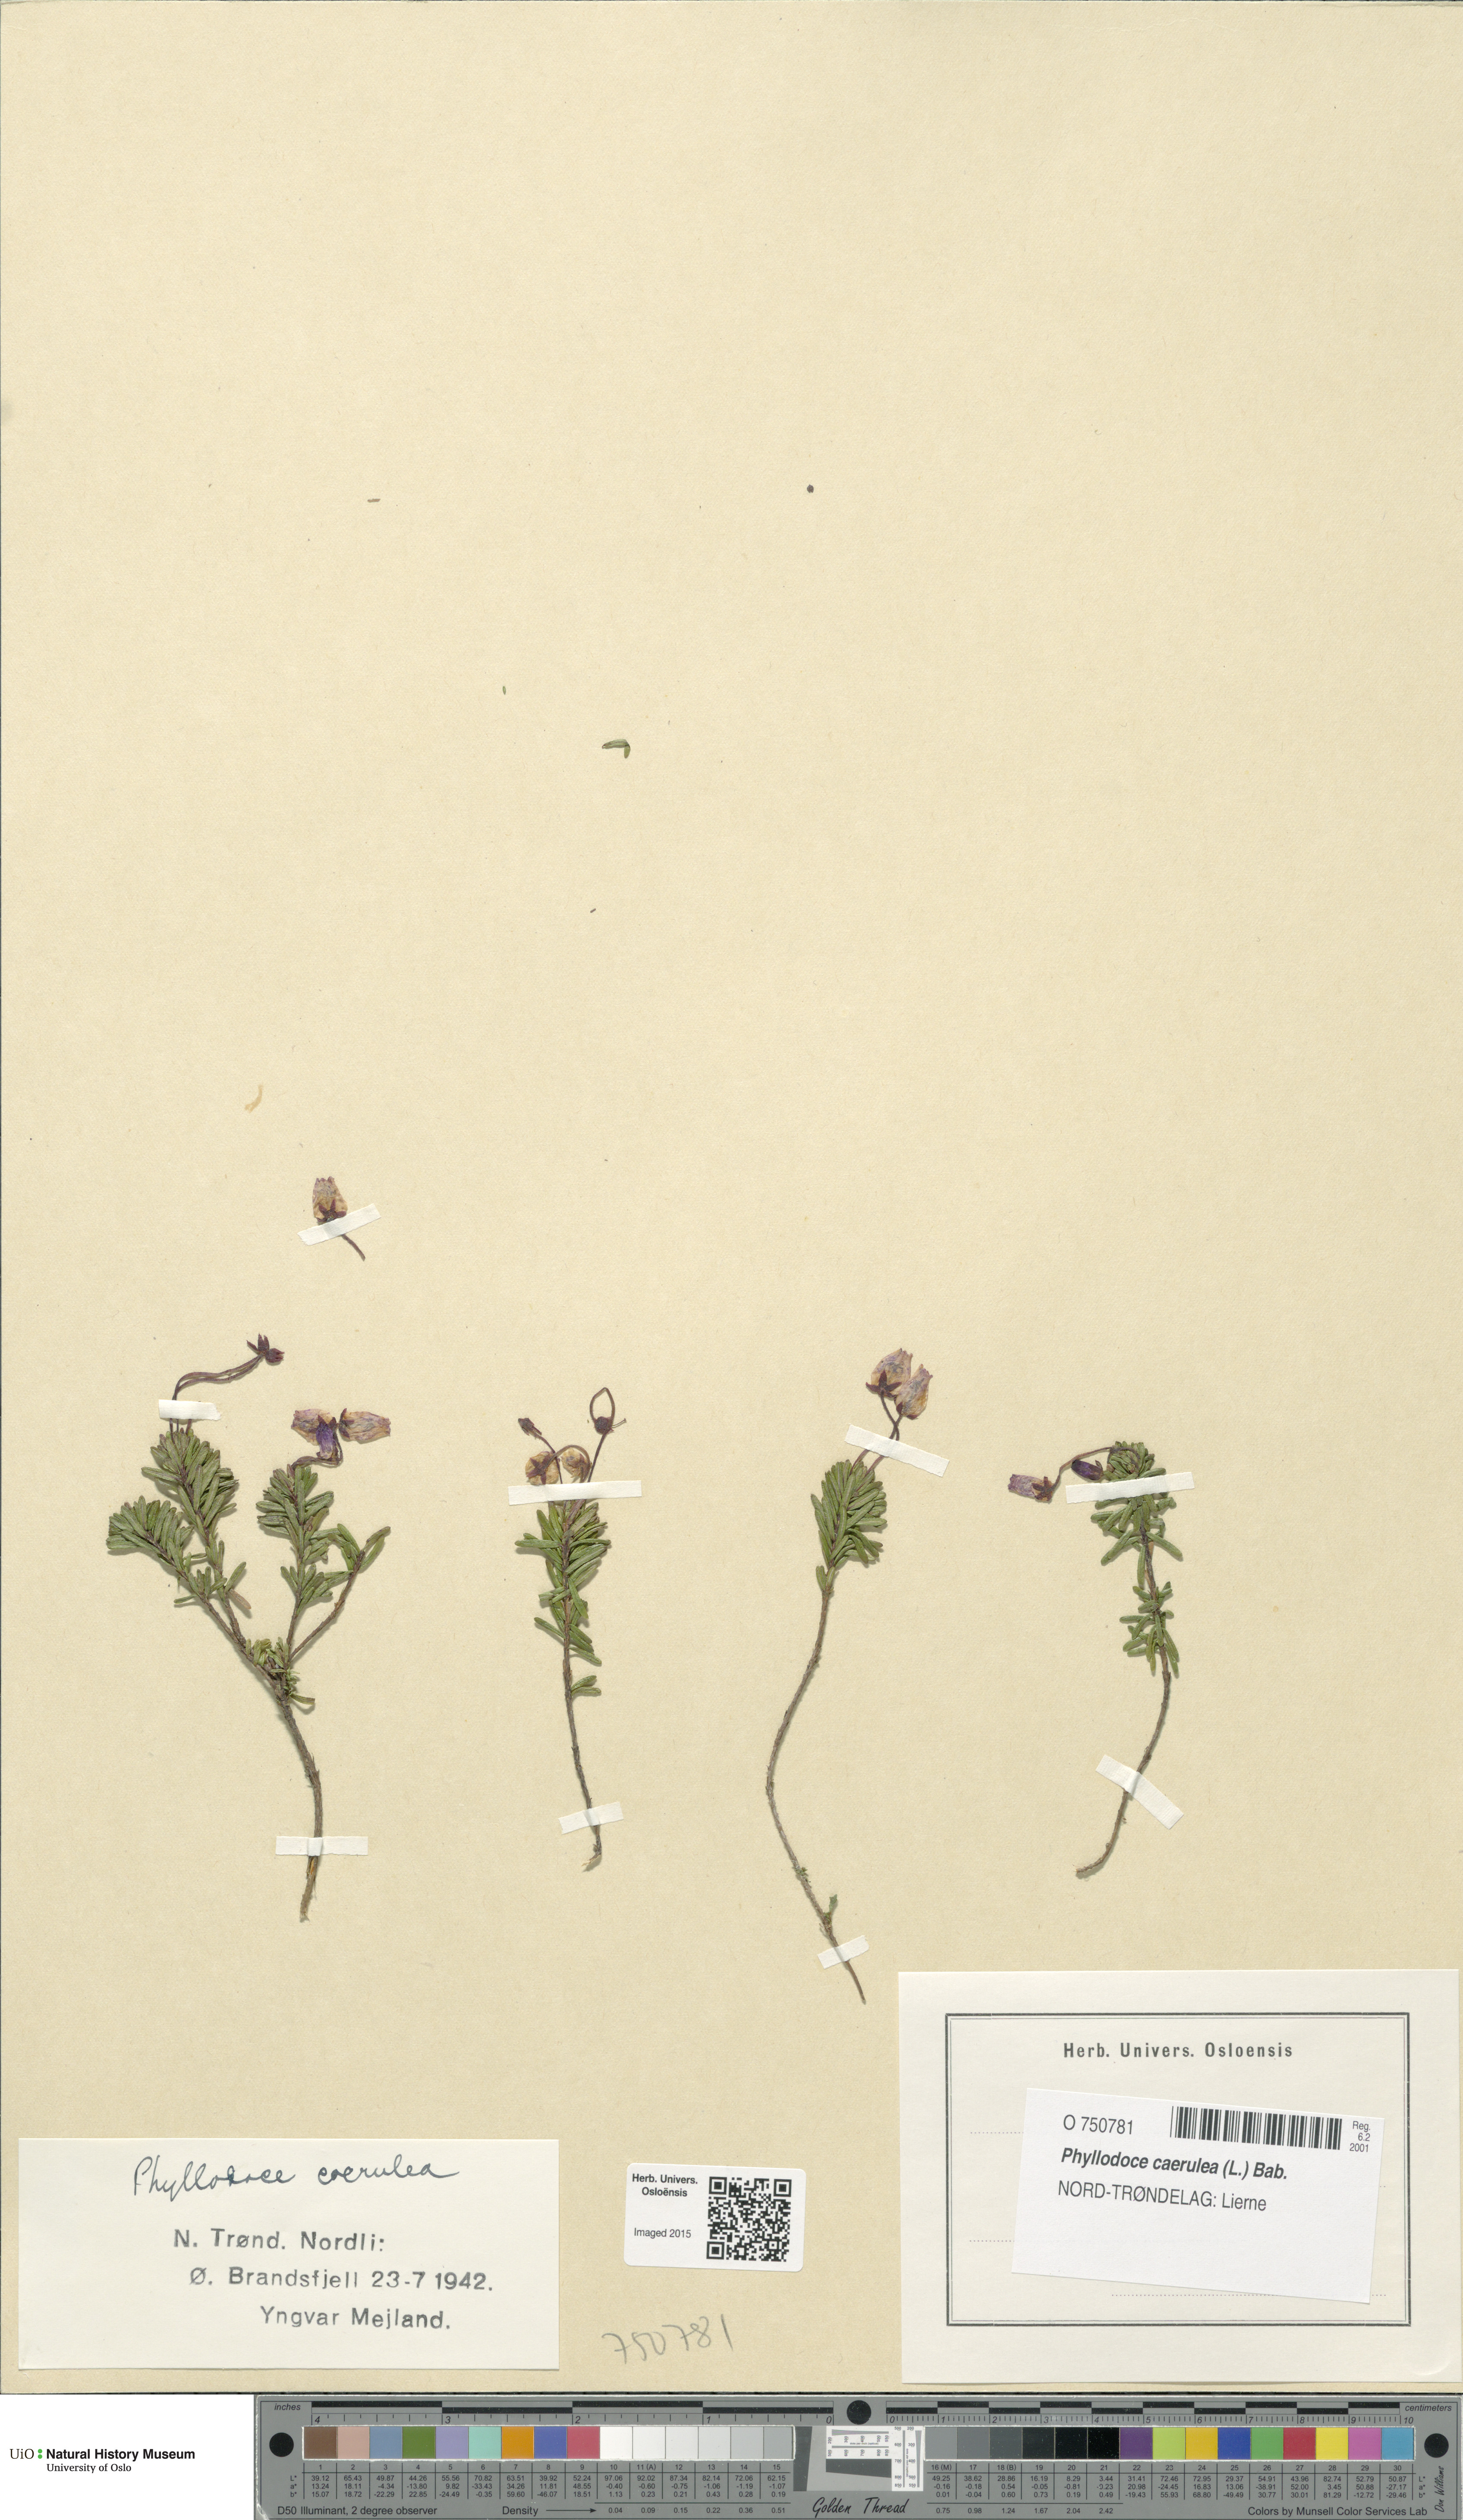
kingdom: Plantae
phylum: Tracheophyta
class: Magnoliopsida
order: Ericales
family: Ericaceae
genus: Phyllodoce
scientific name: Phyllodoce caerulea
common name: Blue heath
